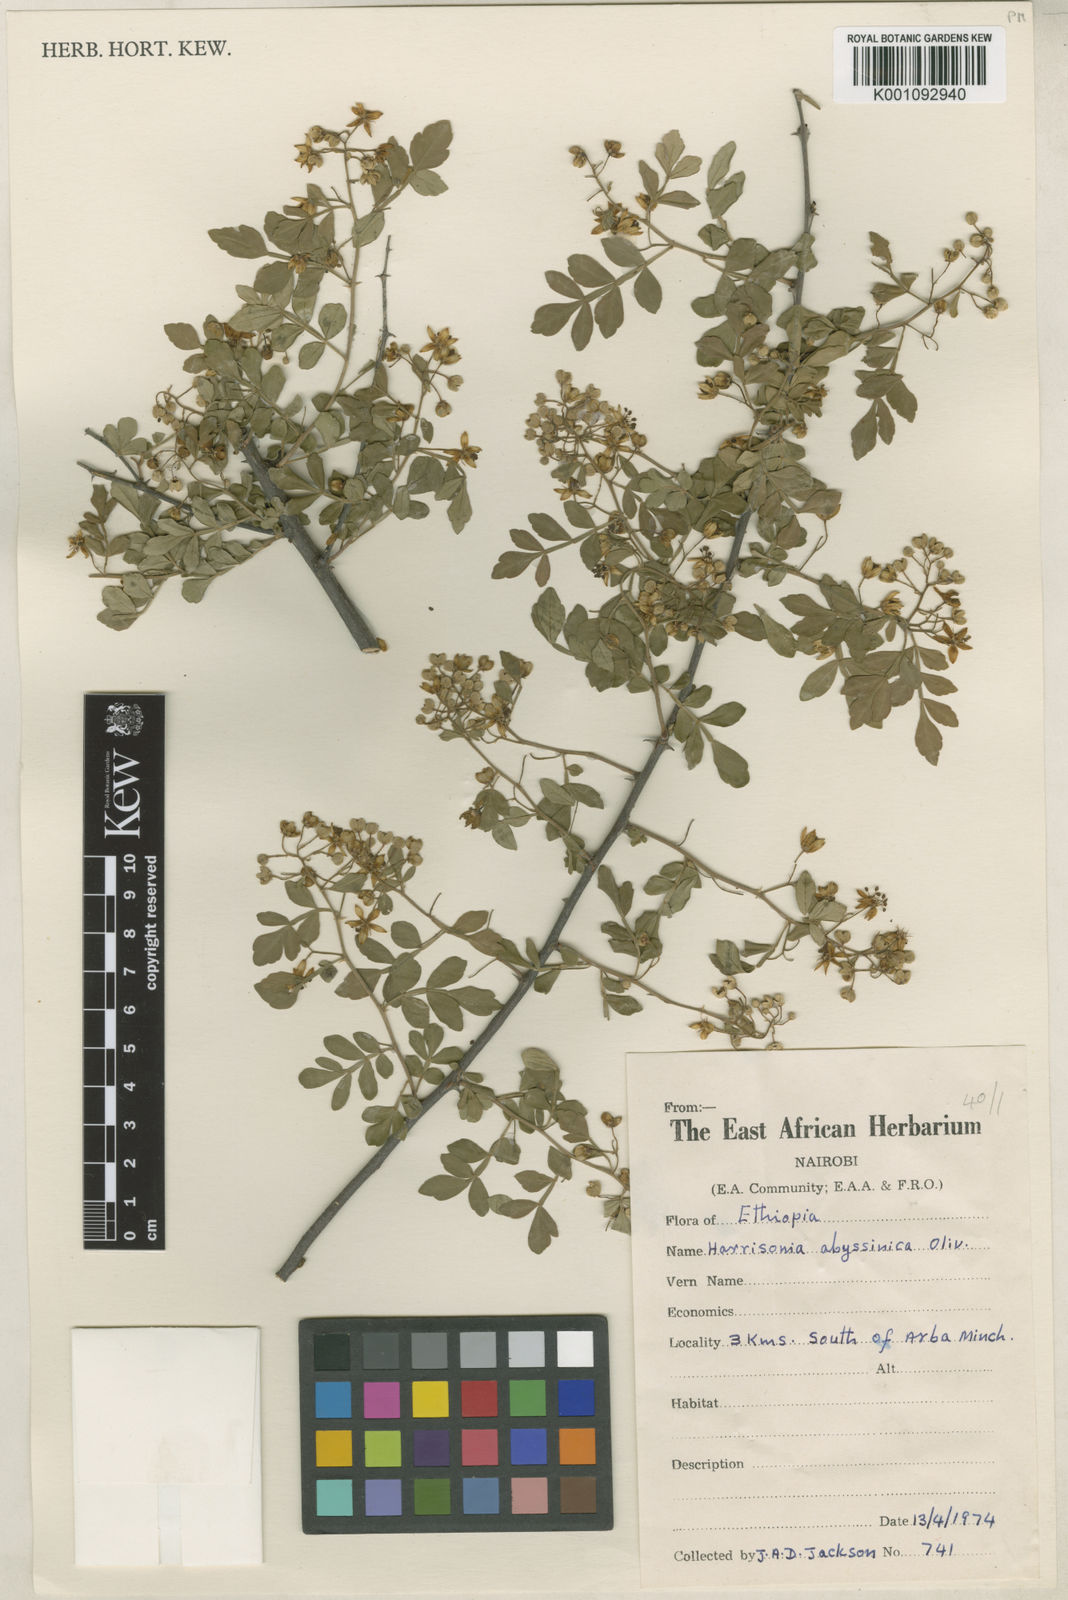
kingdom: Plantae
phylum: Tracheophyta
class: Magnoliopsida
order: Sapindales
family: Rutaceae
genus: Harrisonia
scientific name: Harrisonia abyssinica
